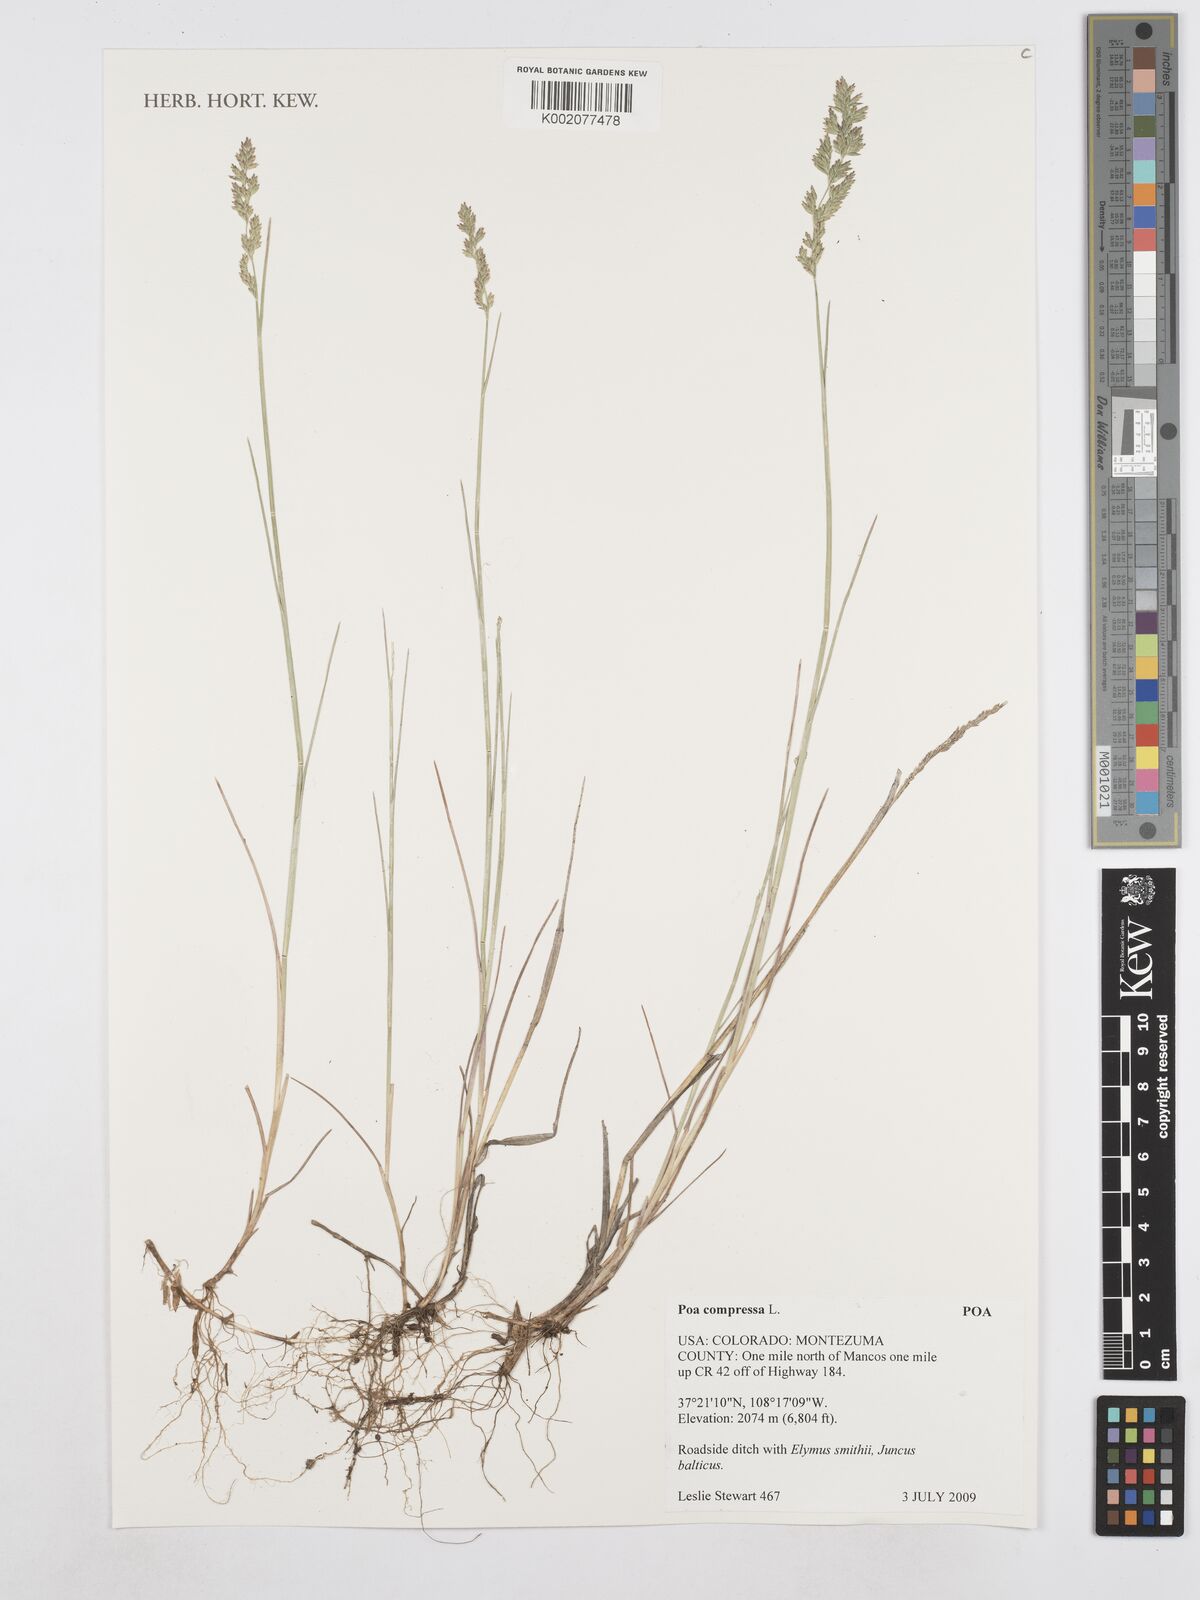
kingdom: Plantae
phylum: Tracheophyta
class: Liliopsida
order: Poales
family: Poaceae
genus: Poa
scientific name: Poa compressa
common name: Canada bluegrass
